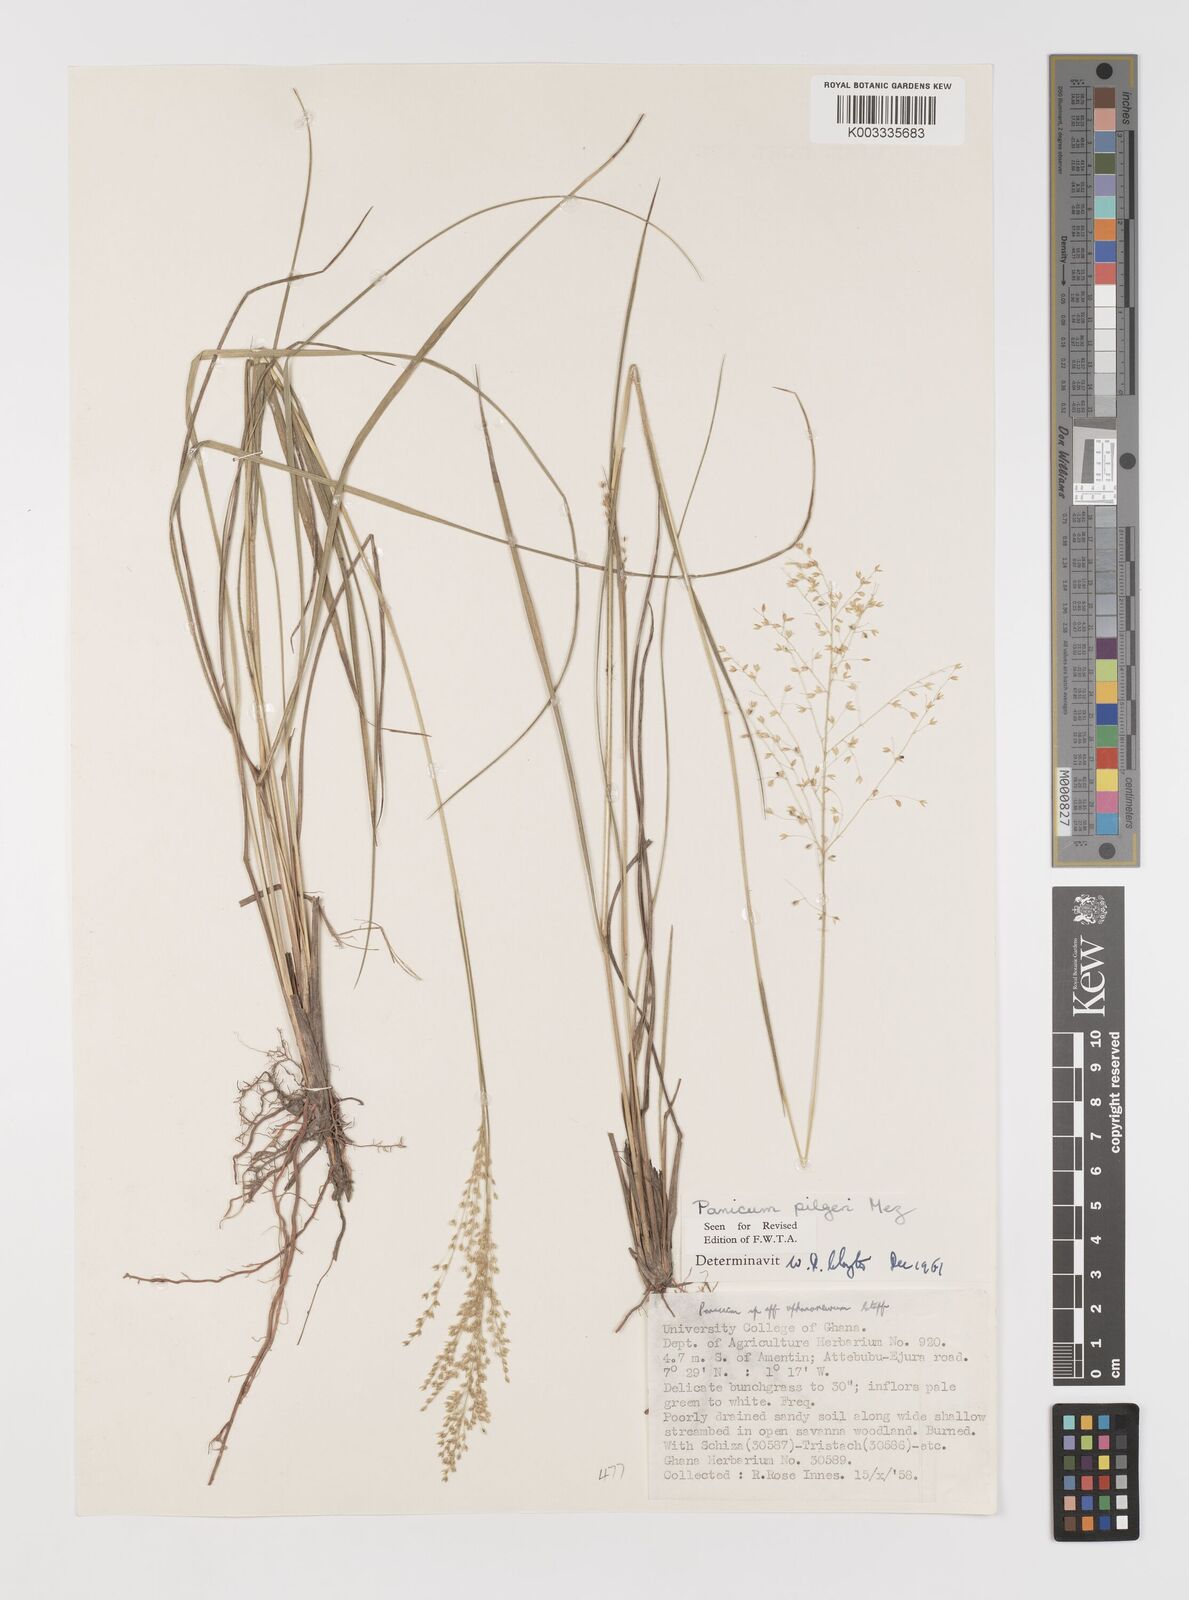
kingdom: Plantae
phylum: Tracheophyta
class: Liliopsida
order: Poales
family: Poaceae
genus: Panicum
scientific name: Panicum
